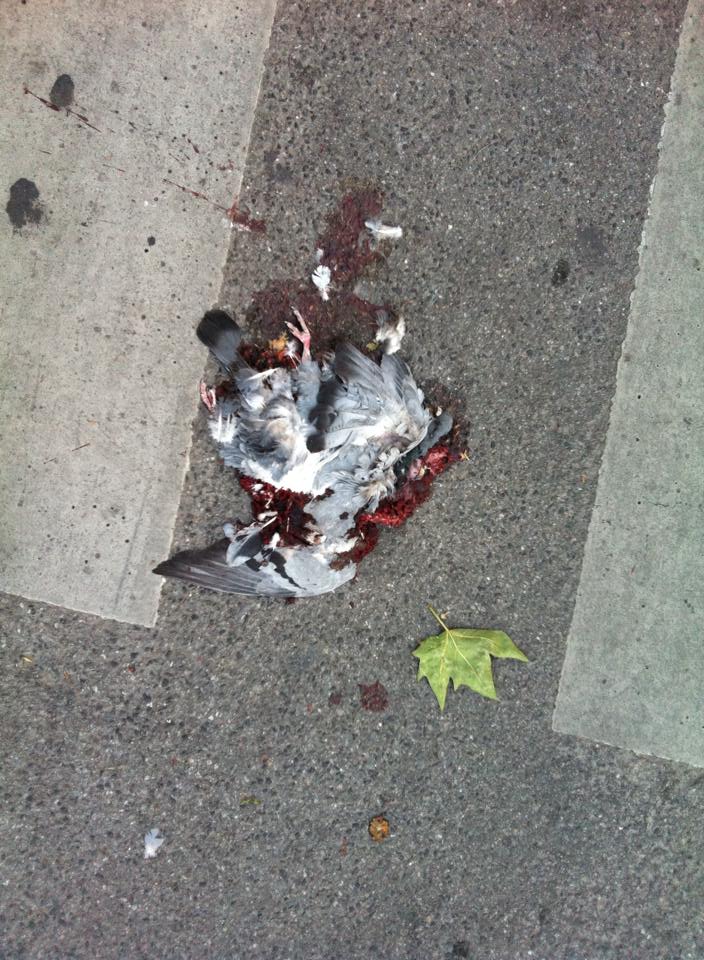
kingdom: Animalia
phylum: Chordata
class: Aves
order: Columbiformes
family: Columbidae
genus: Columba
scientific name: Columba livia
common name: Rock pigeon
